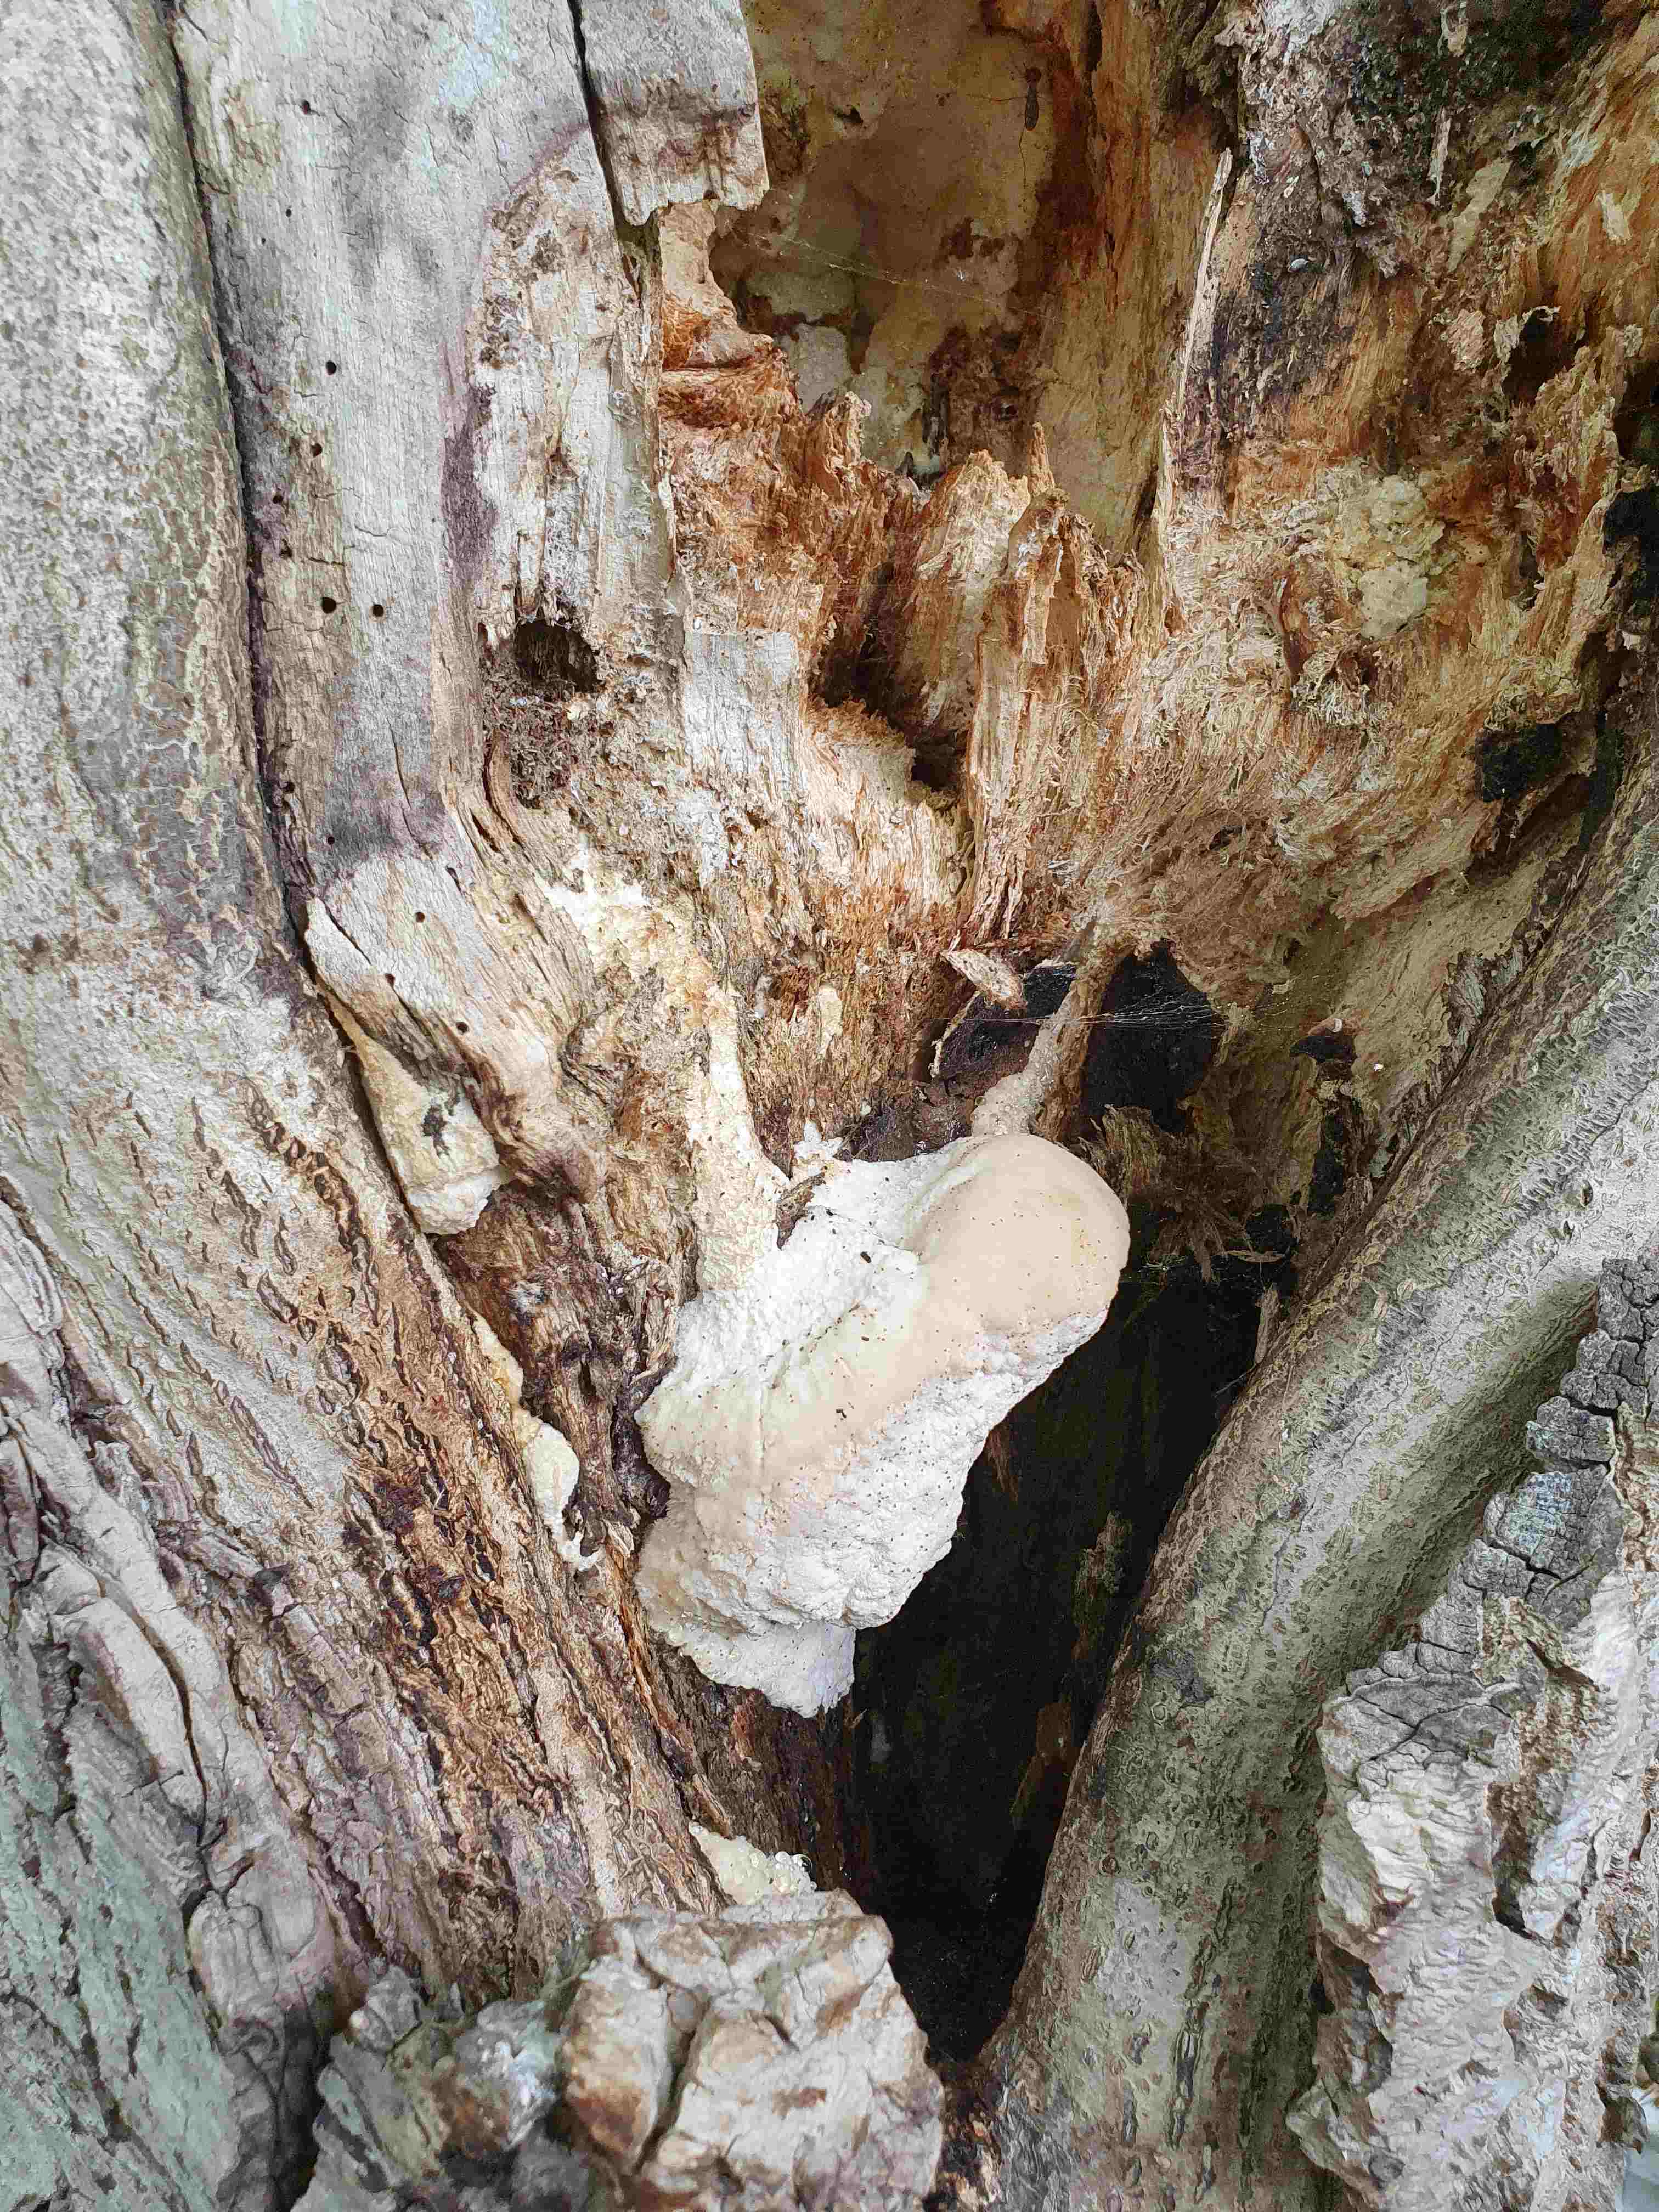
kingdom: Fungi
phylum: Basidiomycota
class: Agaricomycetes
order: Polyporales
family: Meruliaceae
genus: Pappia
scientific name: Pappia fissilis
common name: sej fedtporesvamp
